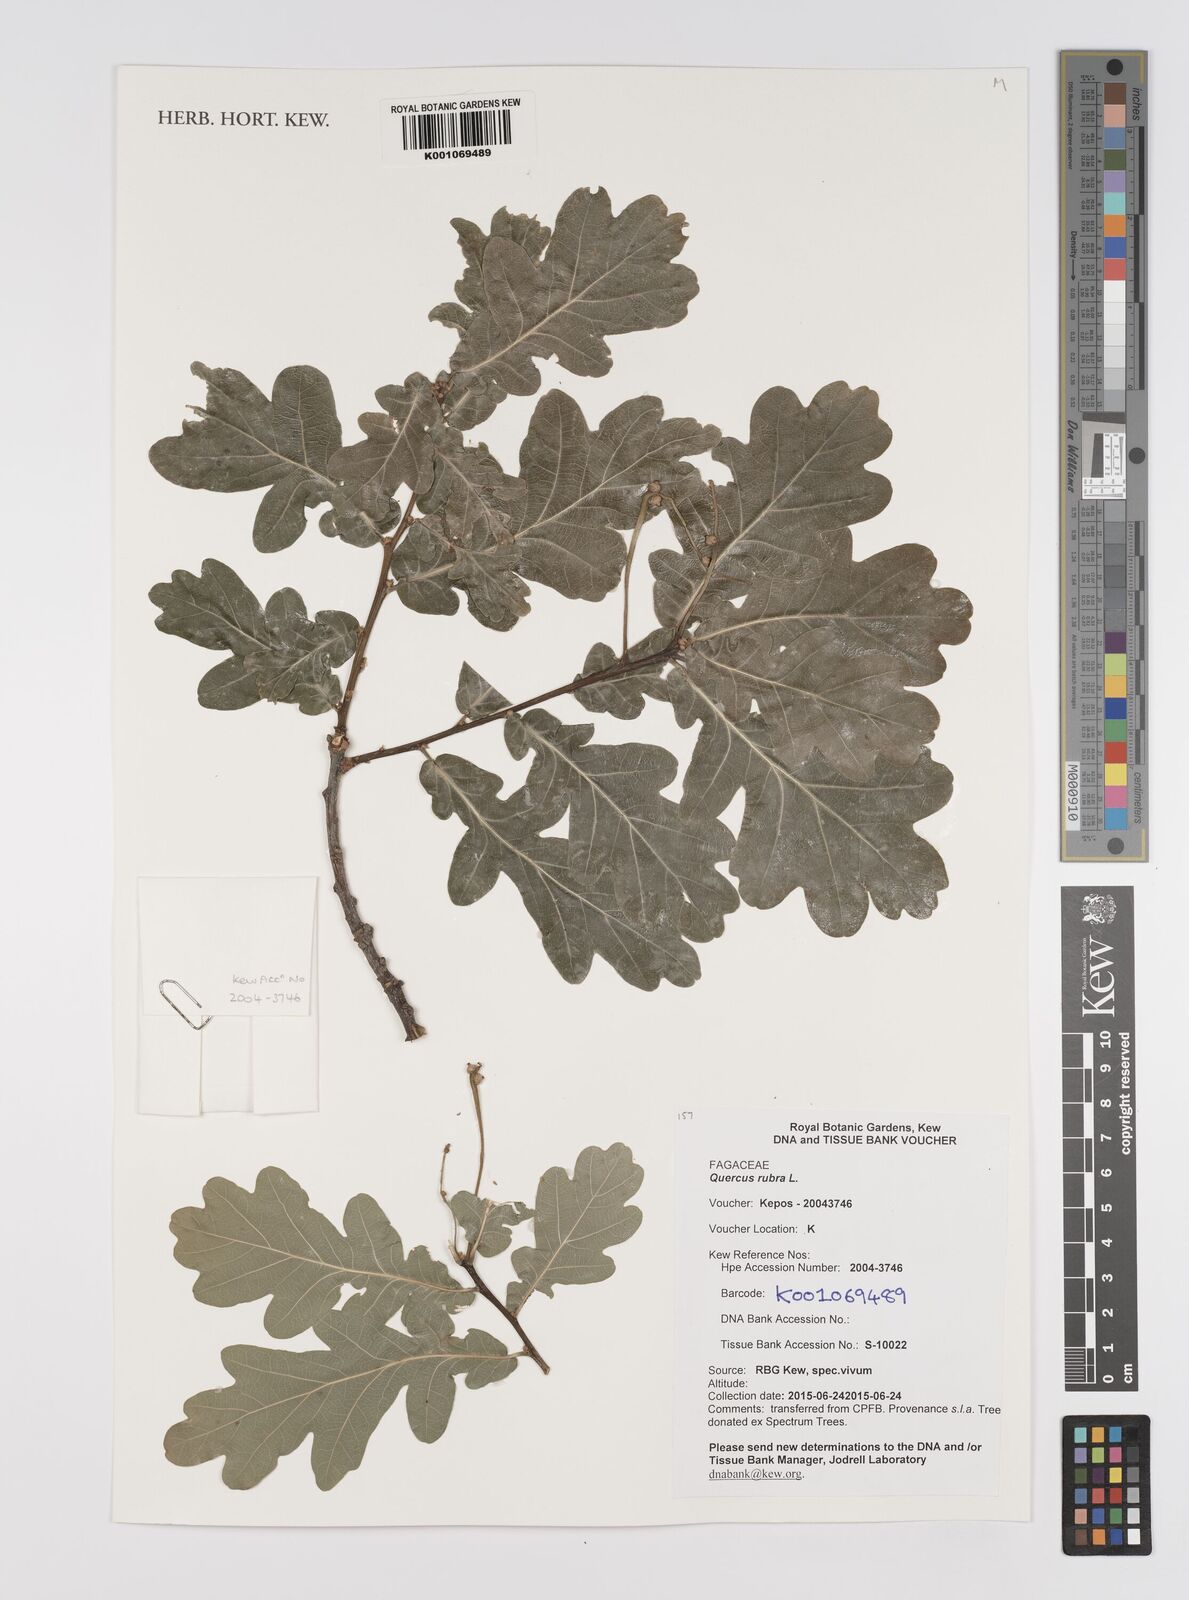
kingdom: Plantae
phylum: Tracheophyta
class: Magnoliopsida
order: Fagales
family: Fagaceae
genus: Quercus
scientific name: Quercus rubra
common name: Red oak
